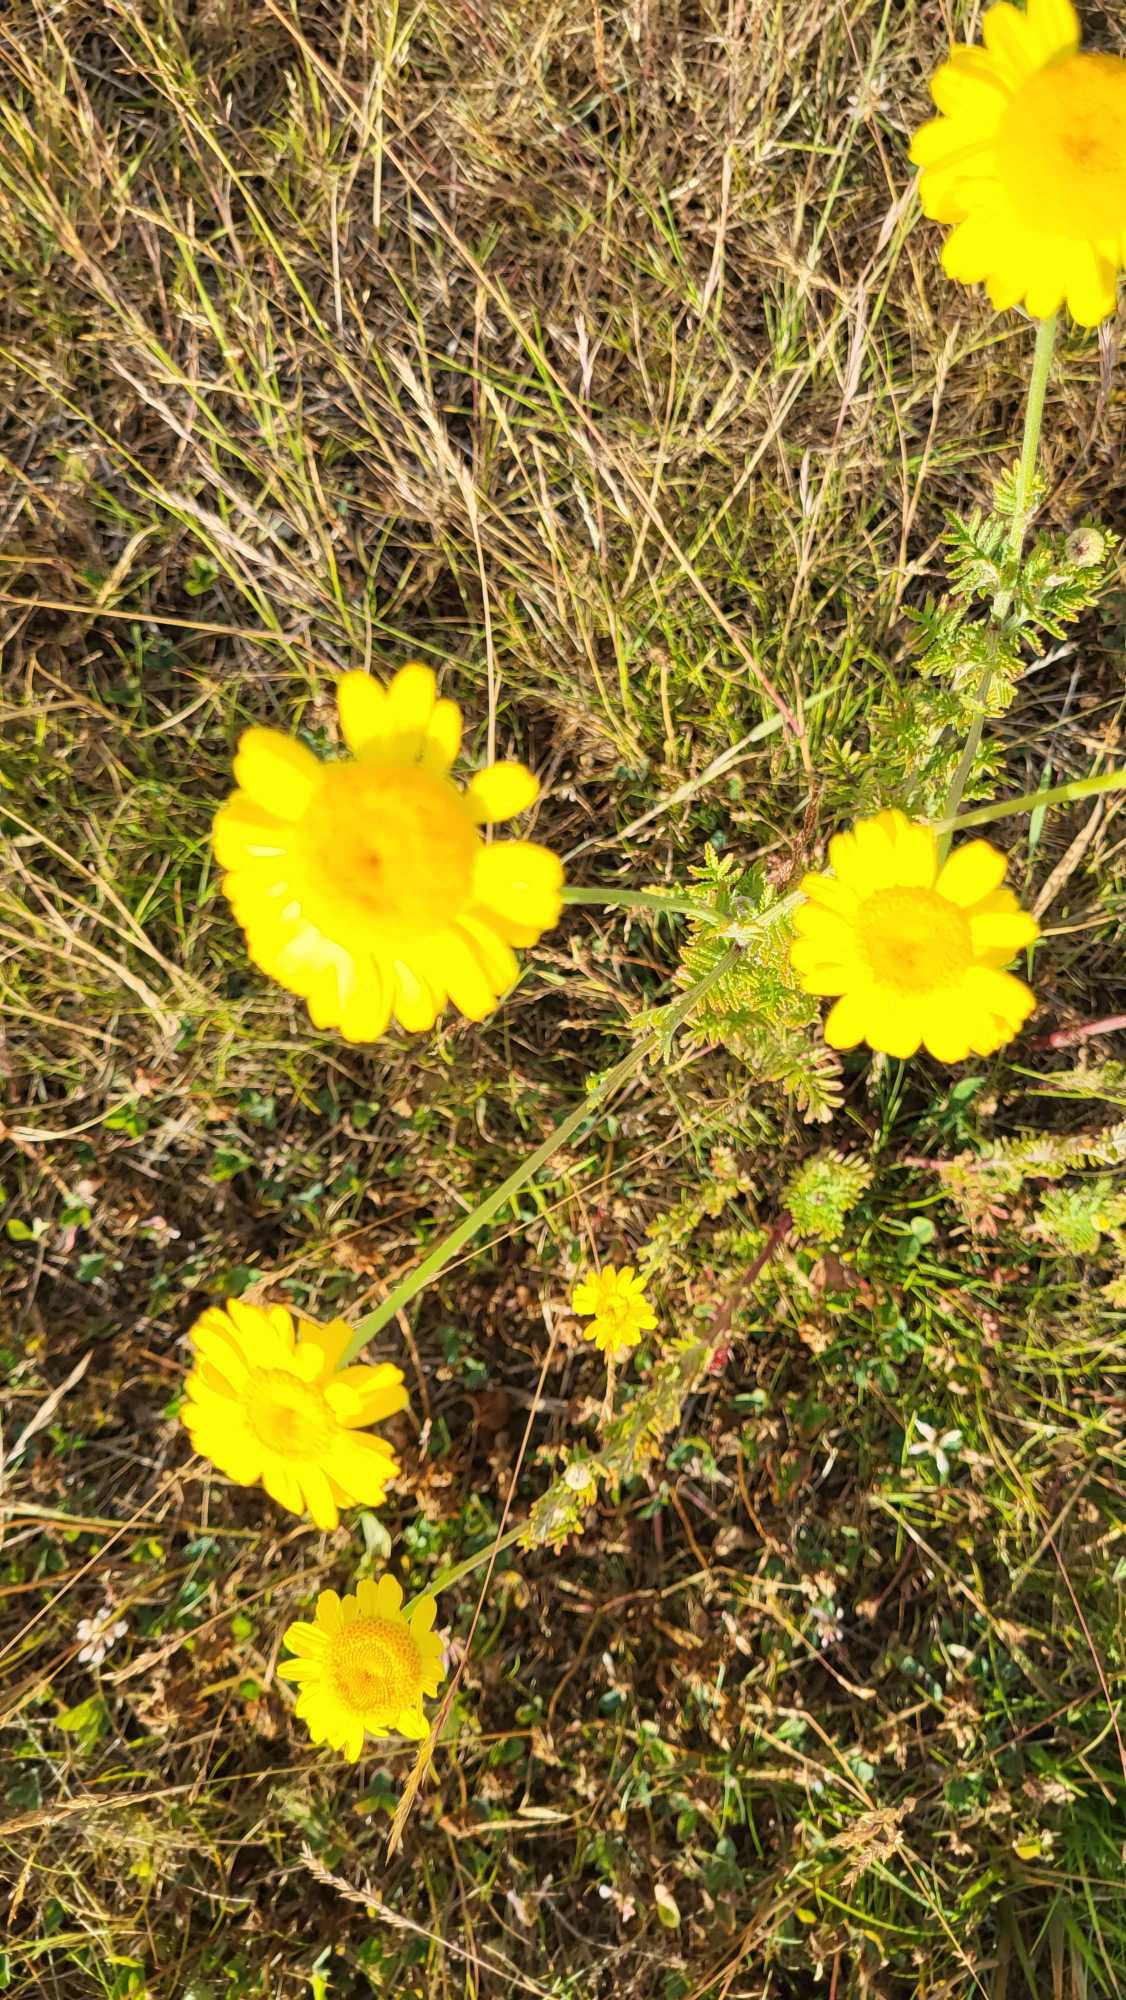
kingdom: Plantae
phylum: Tracheophyta
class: Magnoliopsida
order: Asterales
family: Asteraceae
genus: Cota
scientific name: Cota tinctoria
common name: Farve-gåseurt
